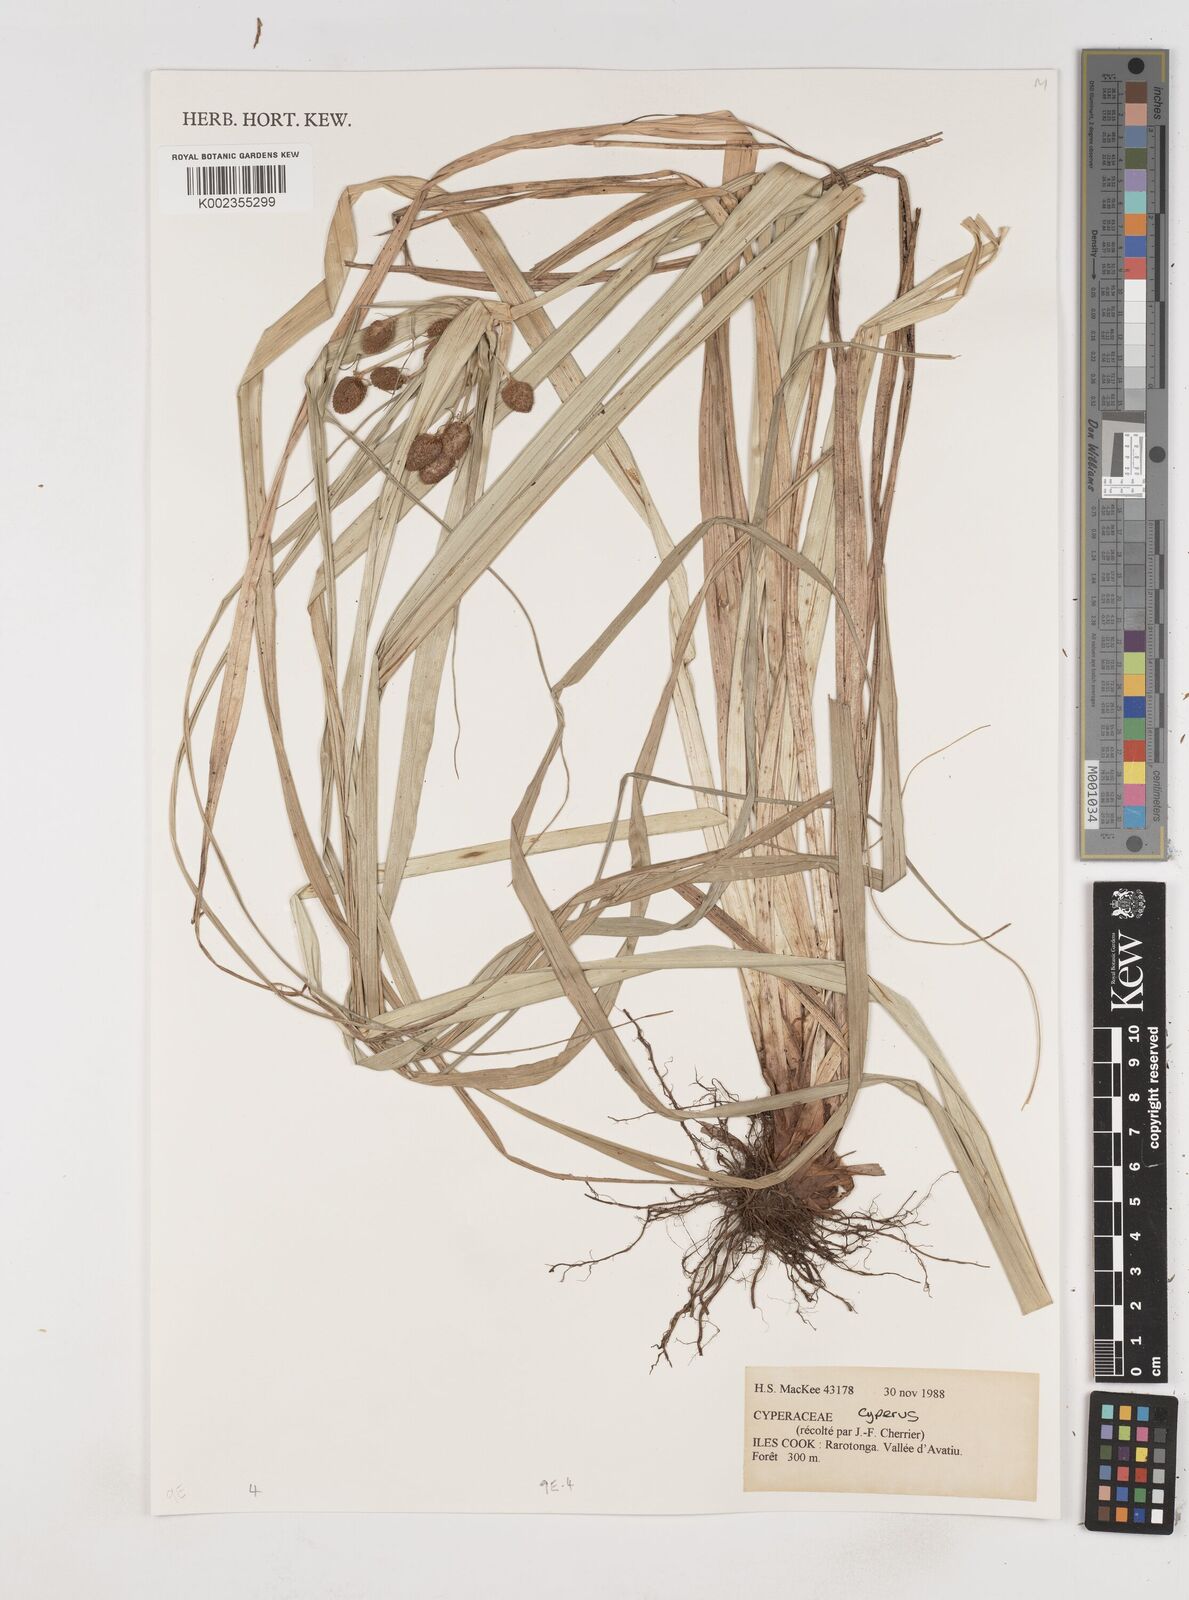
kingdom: Plantae
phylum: Tracheophyta
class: Liliopsida
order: Poales
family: Cyperaceae
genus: Cyperus
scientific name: Cyperus
